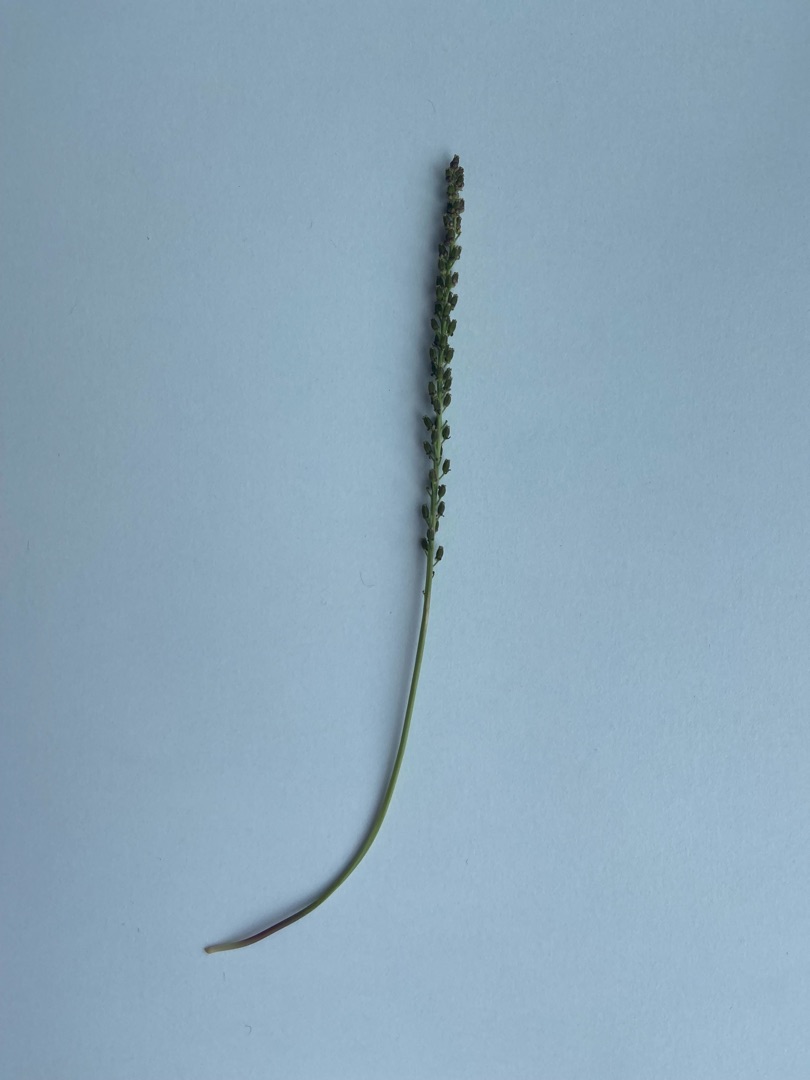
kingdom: Plantae
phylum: Tracheophyta
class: Liliopsida
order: Alismatales
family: Juncaginaceae
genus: Triglochin
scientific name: Triglochin maritima
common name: Strand-trehage
